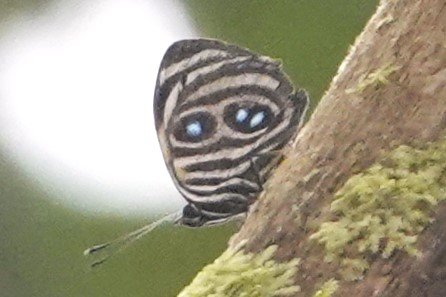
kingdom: Animalia
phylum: Arthropoda
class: Insecta
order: Lepidoptera
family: Nymphalidae
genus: Catagramma
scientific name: Catagramma Callicore tolima
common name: Blue-and-orange Eighty-eight
